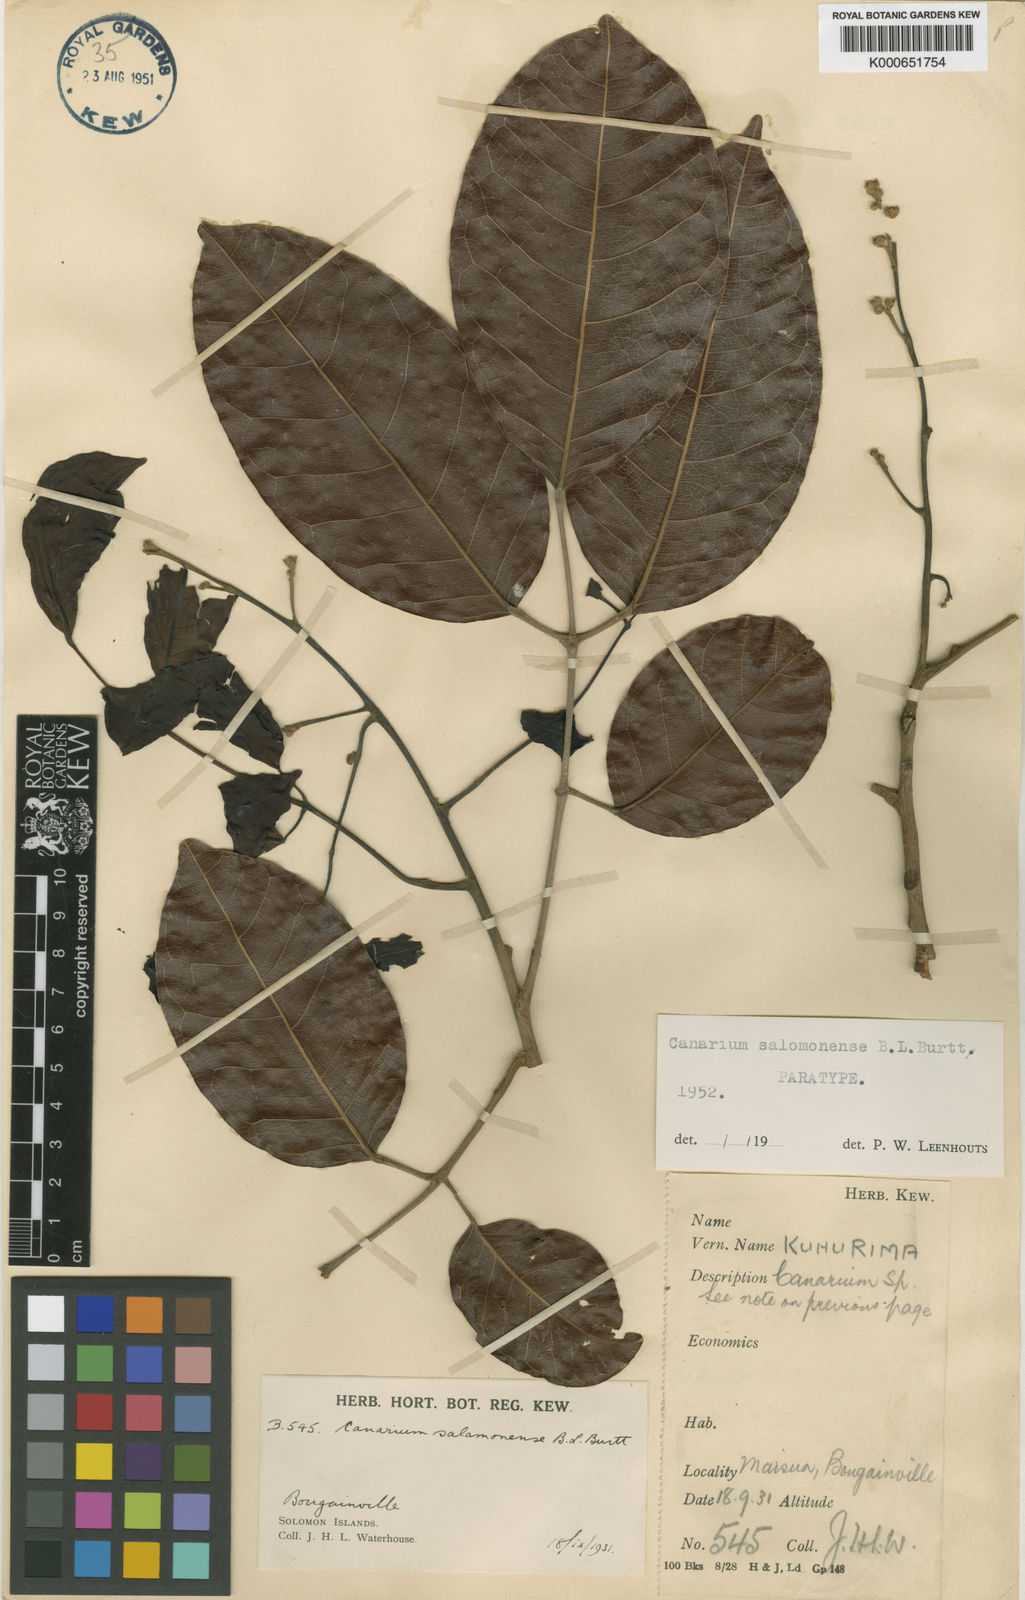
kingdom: Plantae
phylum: Tracheophyta
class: Magnoliopsida
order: Sapindales
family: Burseraceae
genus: Canarium
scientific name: Canarium salomonense
